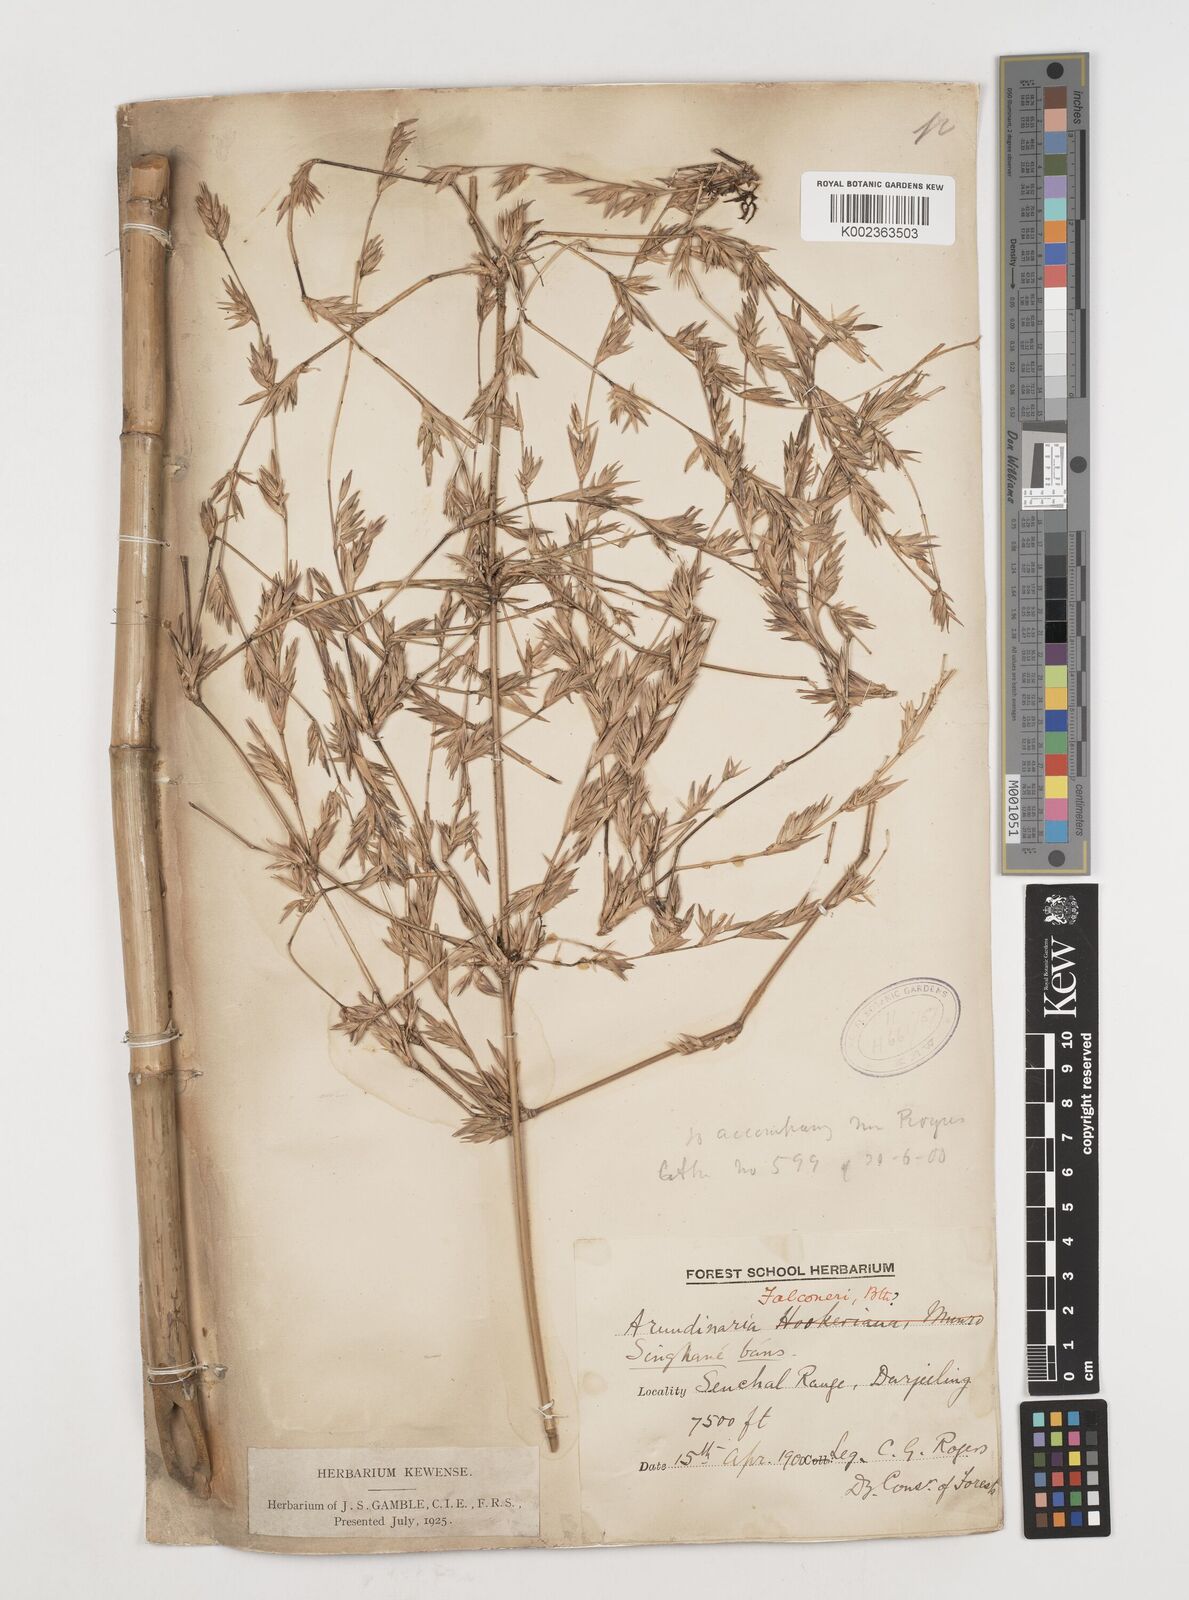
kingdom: Plantae
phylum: Tracheophyta
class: Liliopsida
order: Poales
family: Poaceae
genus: Himalayacalamus
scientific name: Himalayacalamus falconeri
